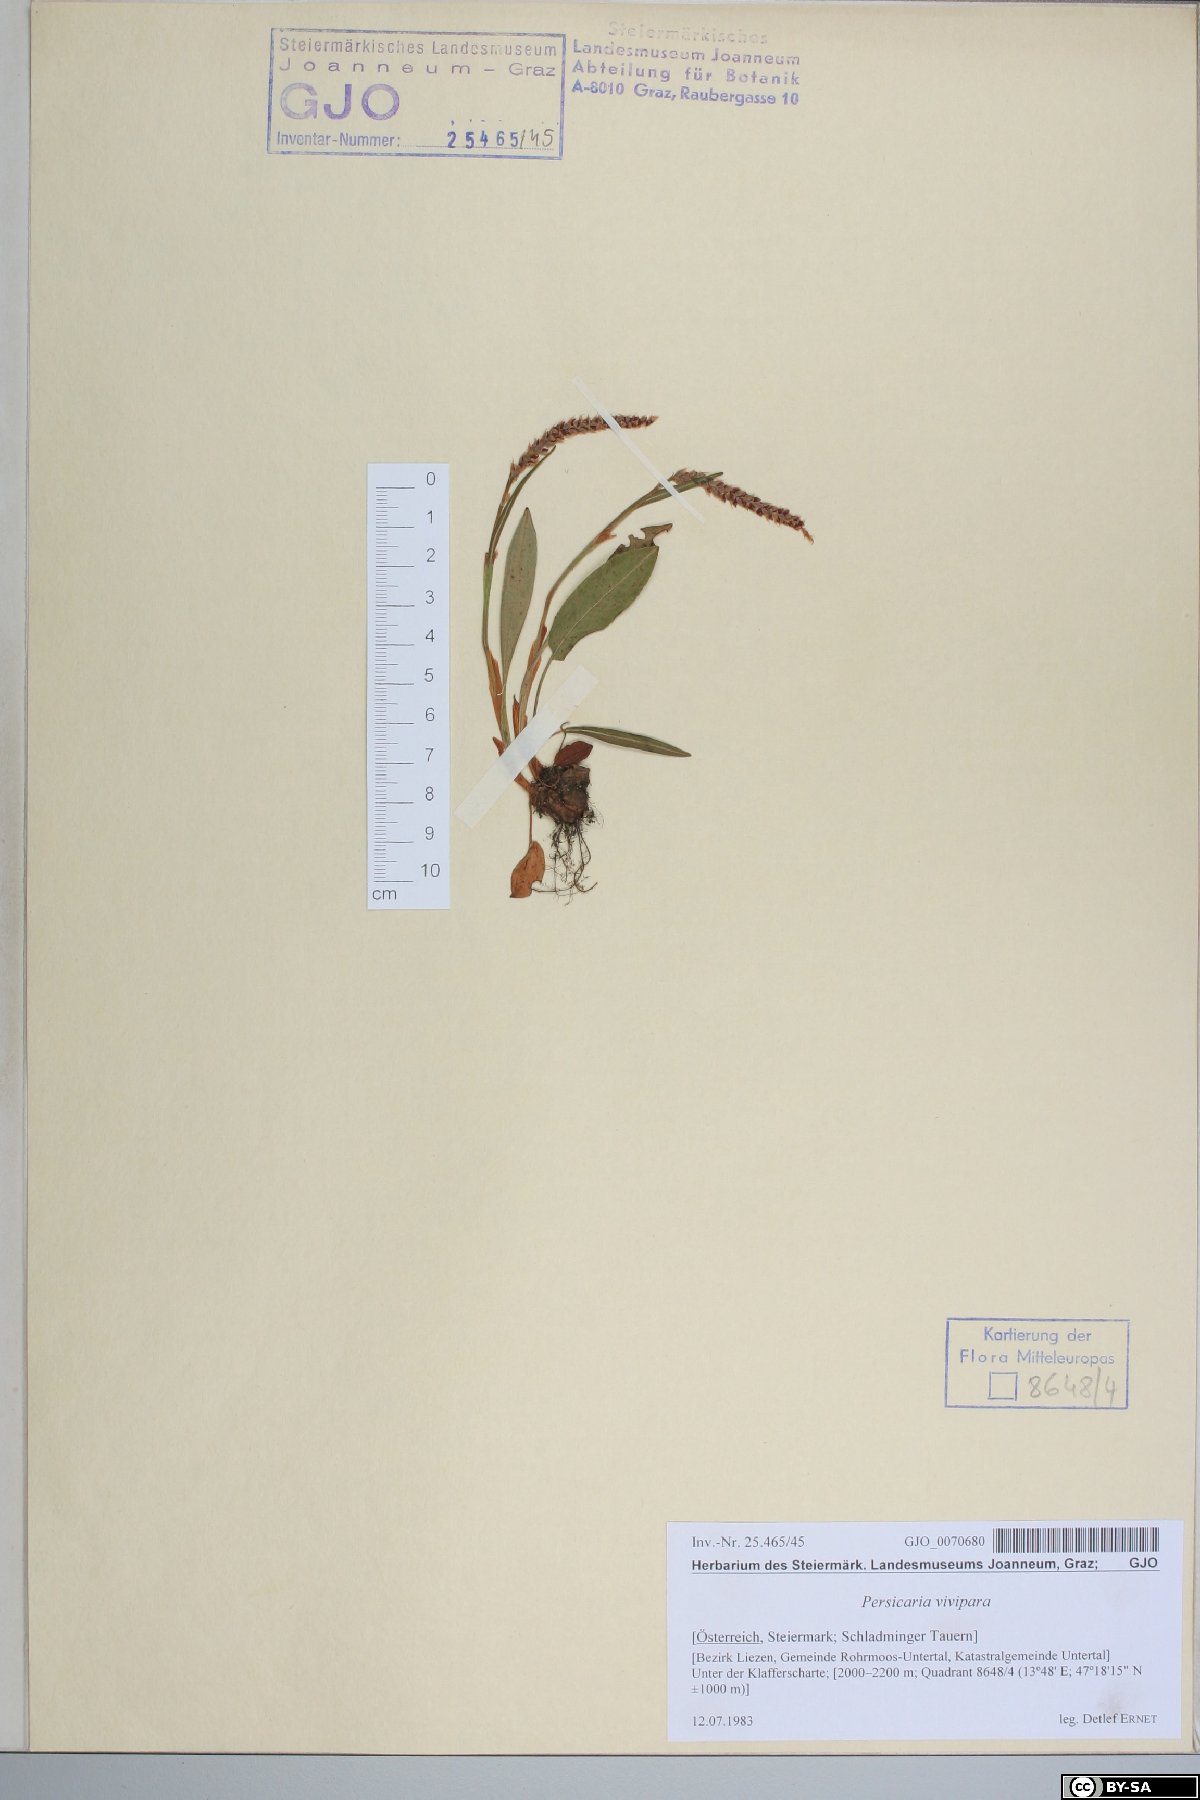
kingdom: Plantae
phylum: Tracheophyta
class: Magnoliopsida
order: Caryophyllales
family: Polygonaceae
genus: Bistorta
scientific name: Bistorta vivipara
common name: Alpine bistort
